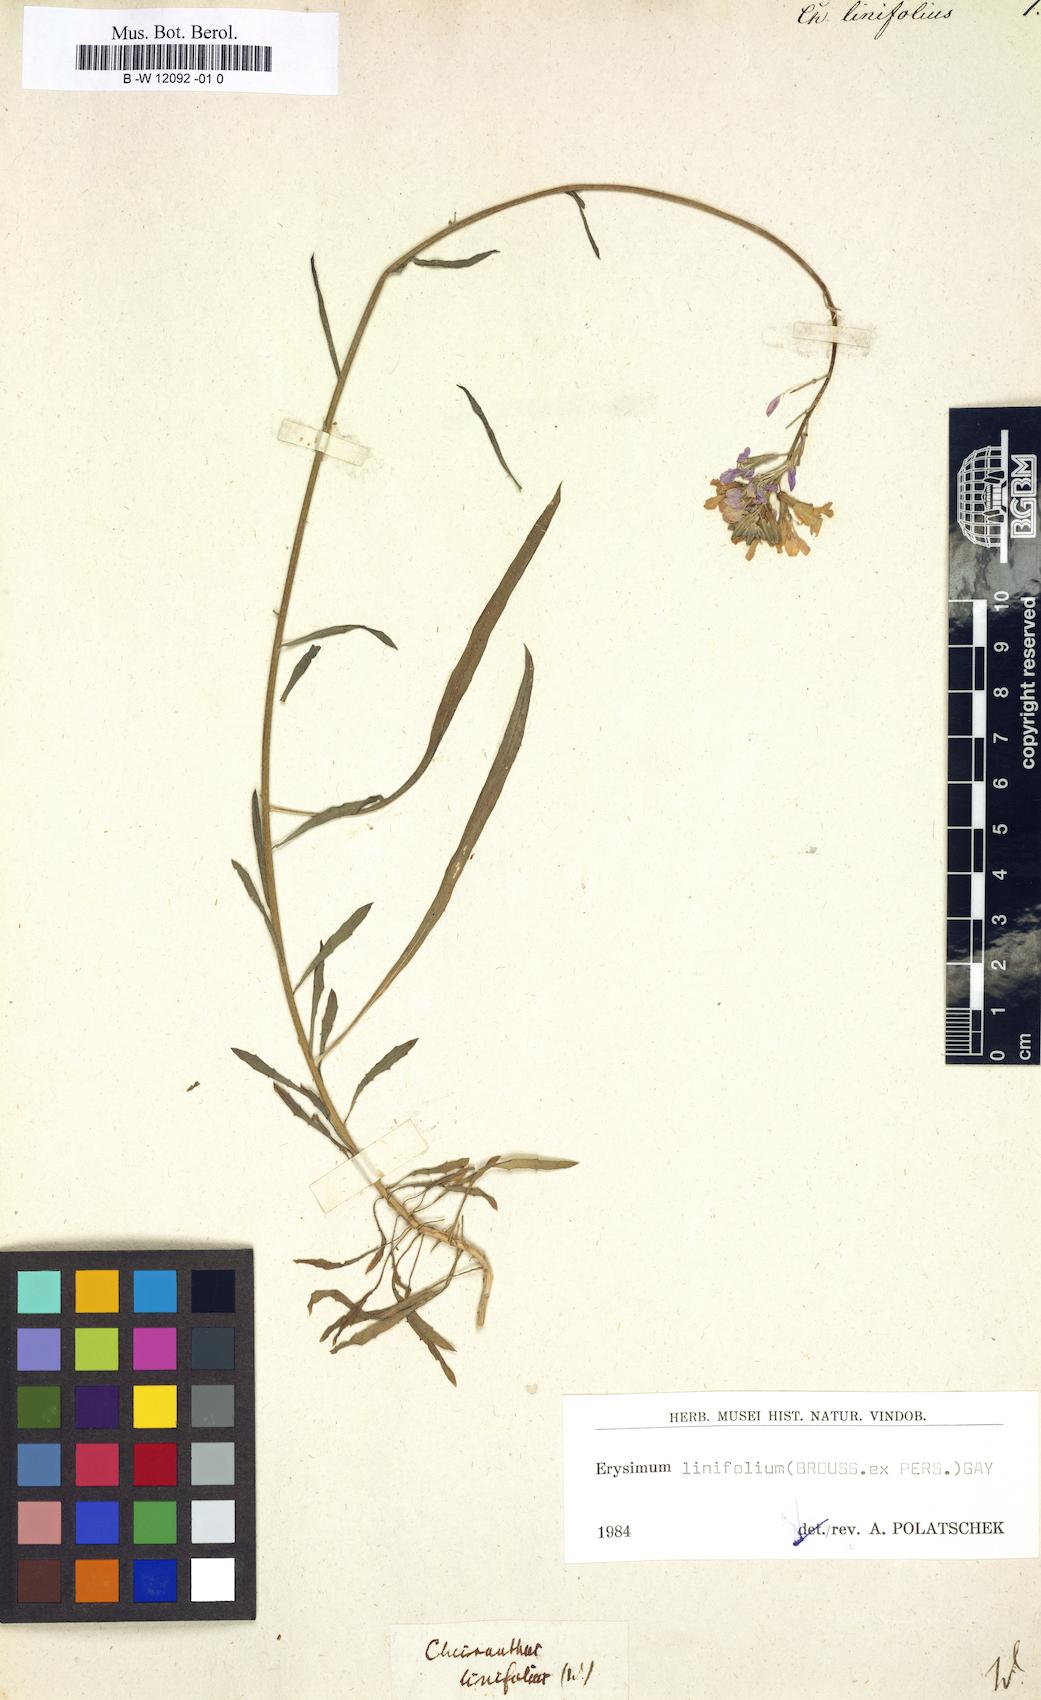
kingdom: Plantae
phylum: Tracheophyta
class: Magnoliopsida
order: Brassicales
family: Brassicaceae
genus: Erysimum
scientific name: Erysimum linifolium
